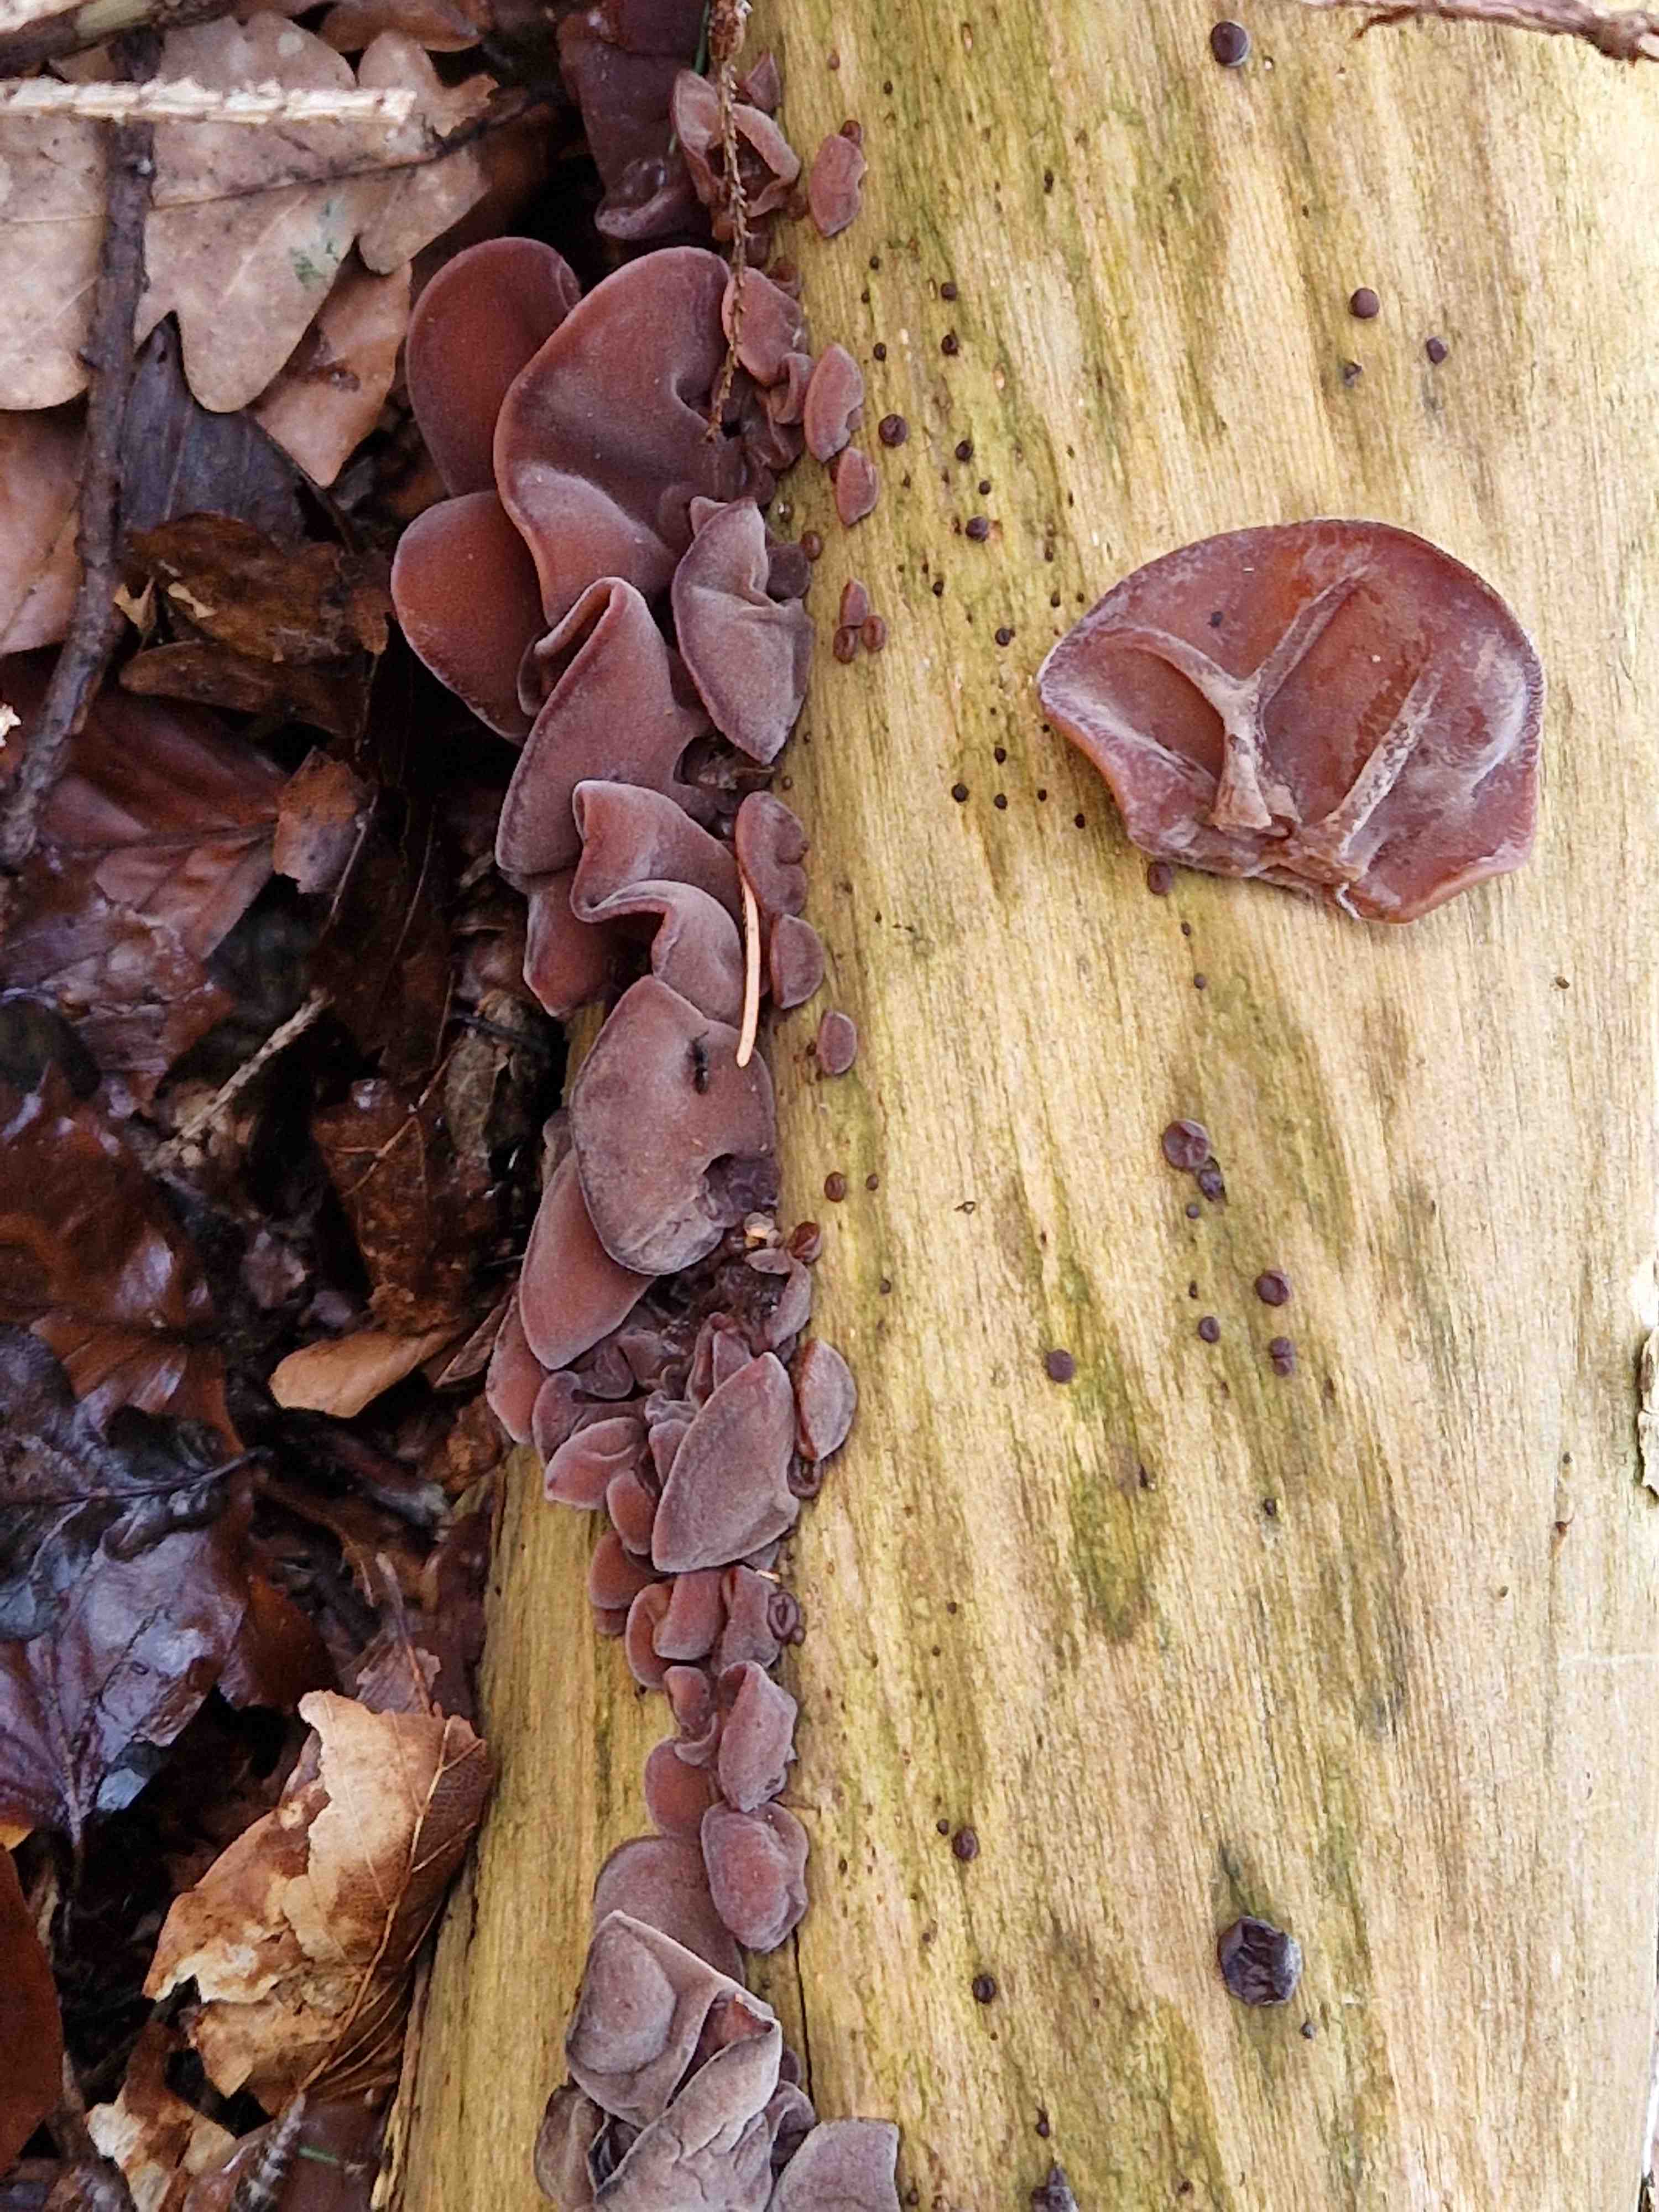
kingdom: Fungi
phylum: Basidiomycota
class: Agaricomycetes
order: Auriculariales
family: Auriculariaceae
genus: Auricularia
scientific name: Auricularia auricula-judae
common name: almindelig judasøre
